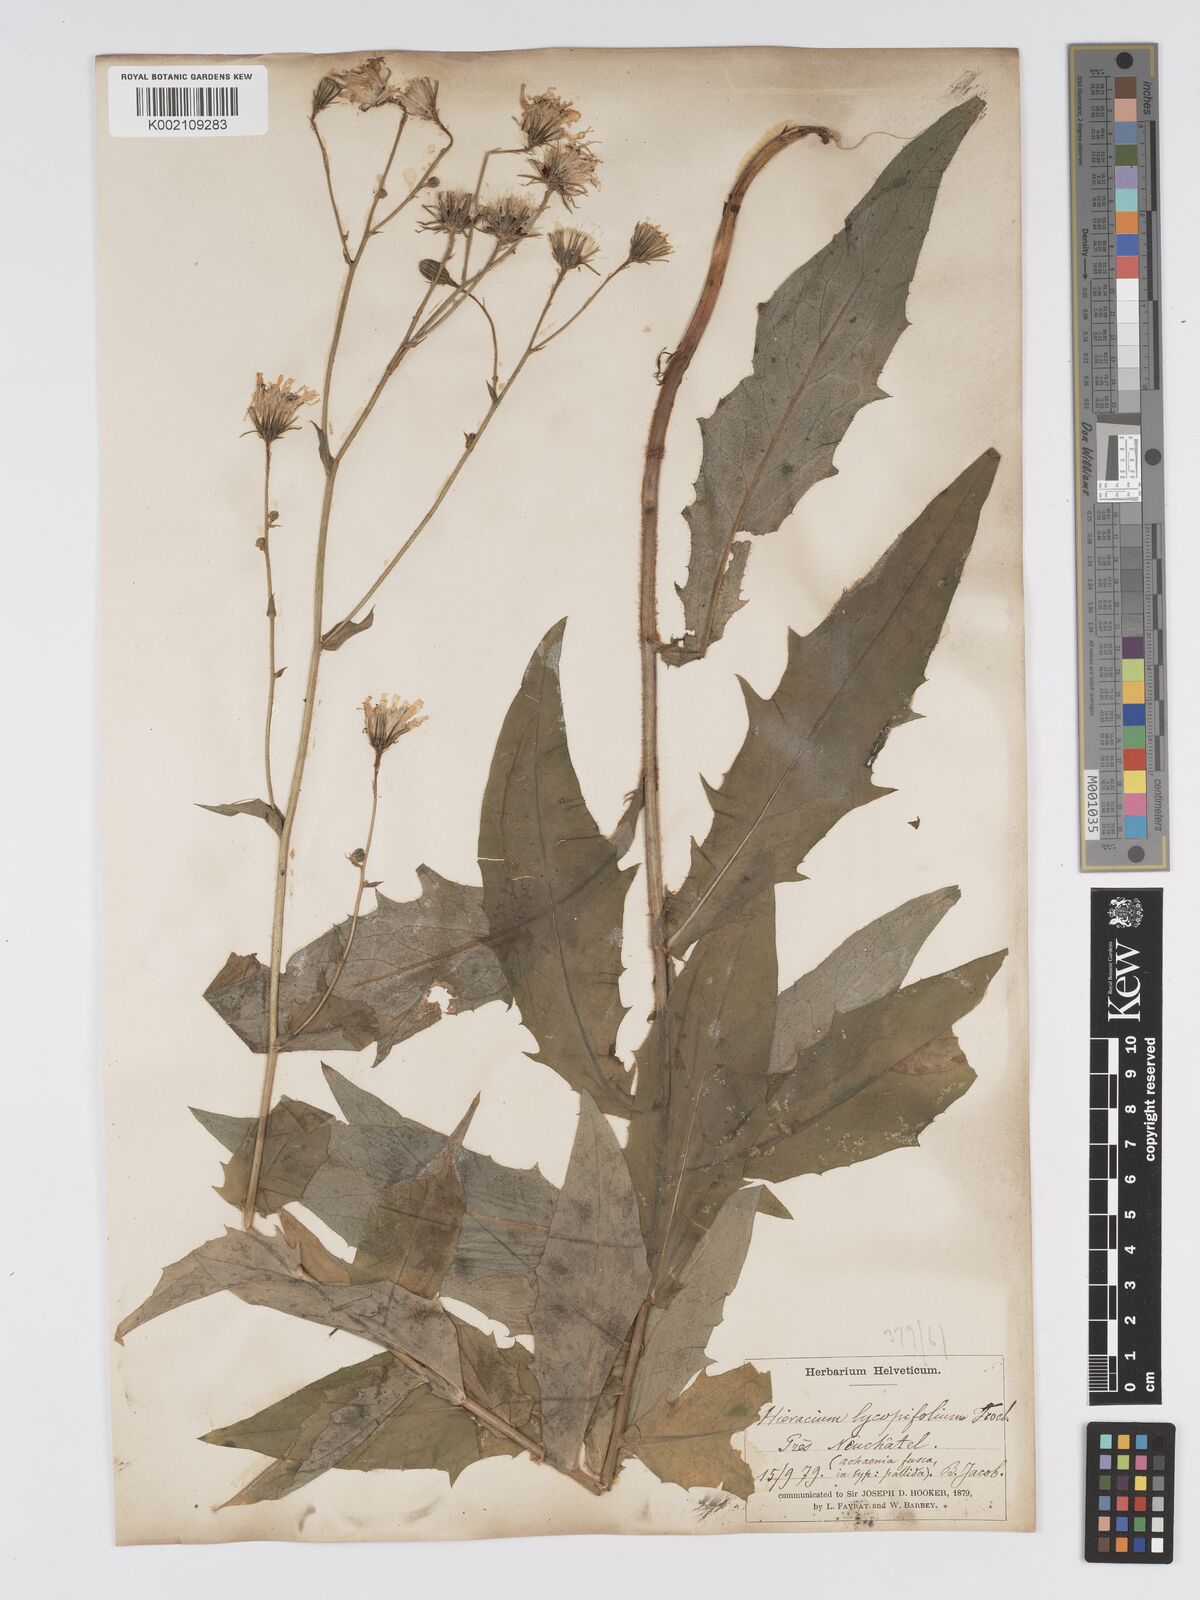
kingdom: Plantae
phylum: Tracheophyta
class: Magnoliopsida
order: Asterales
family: Asteraceae
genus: Hieracium
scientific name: Hieracium lycopifolium
